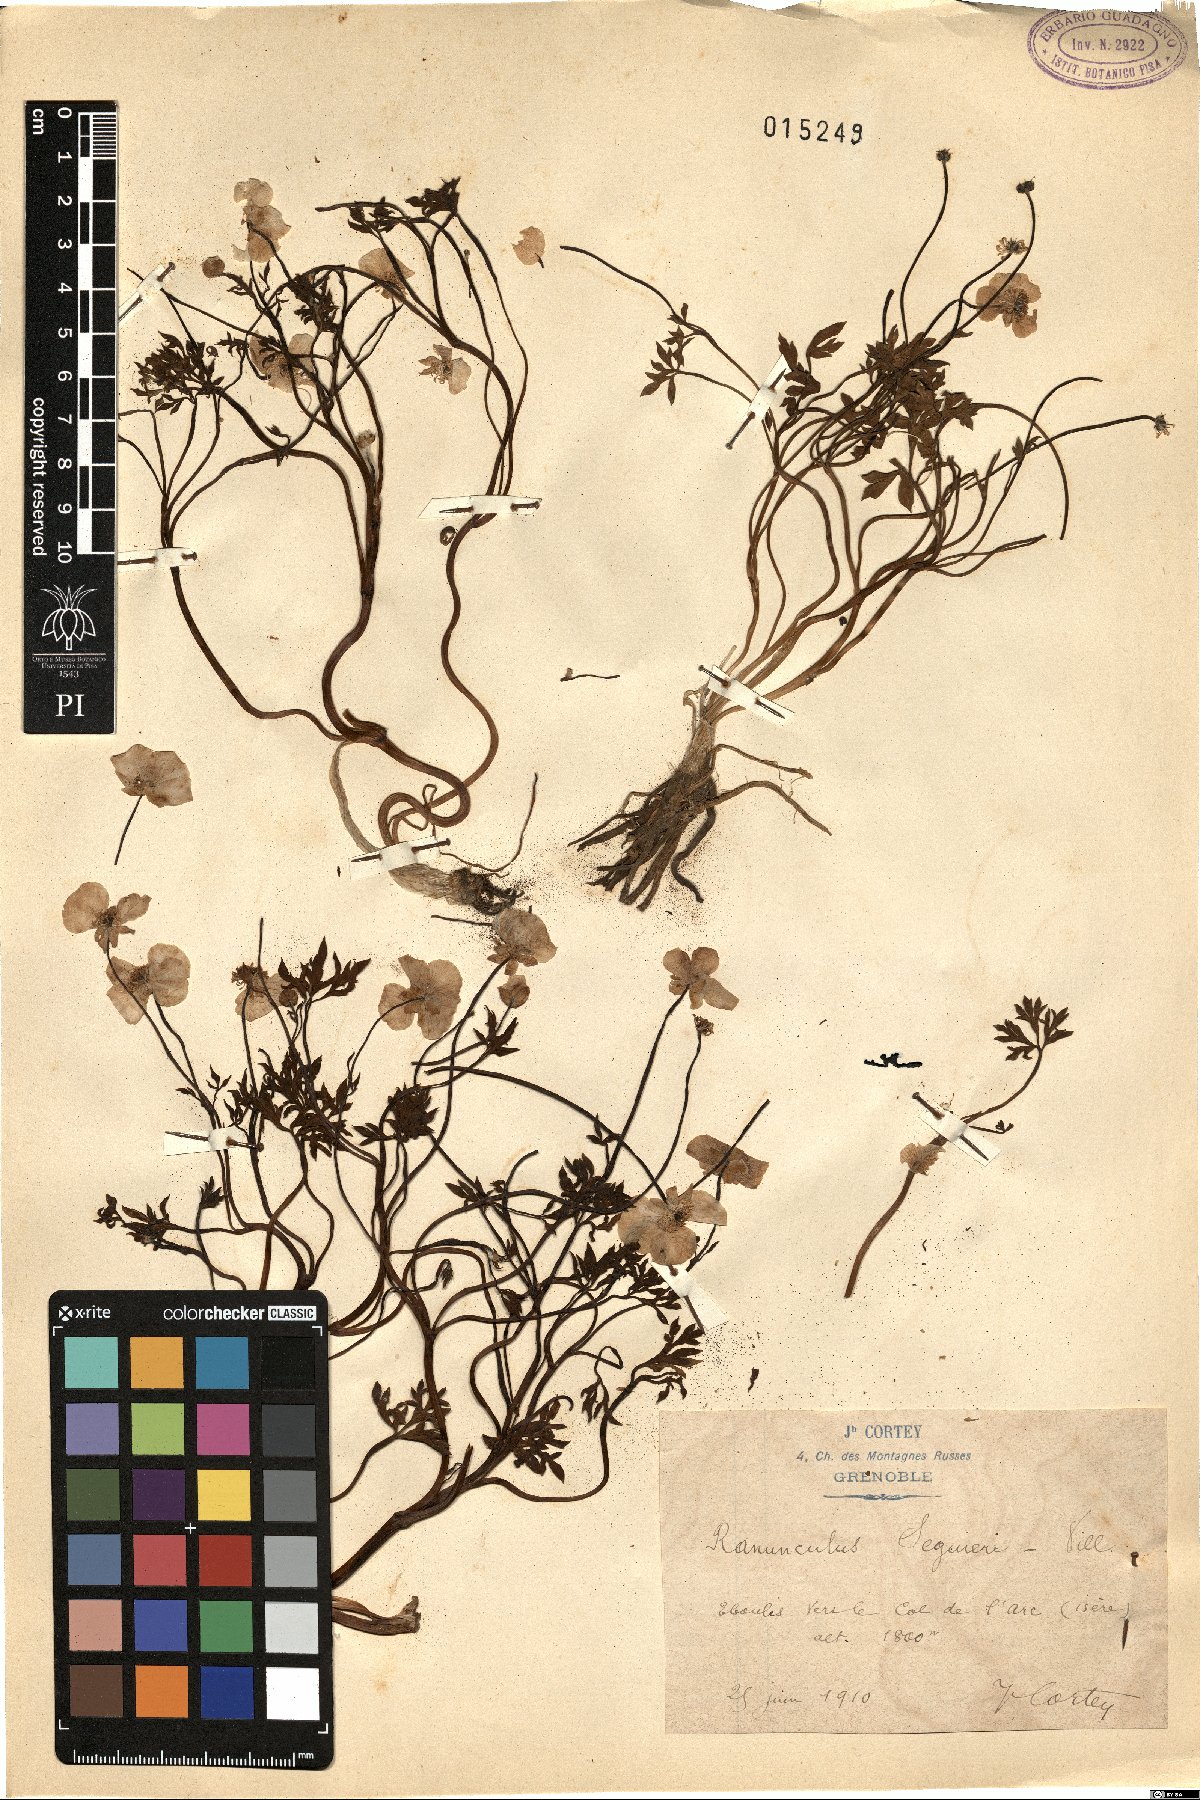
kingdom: Plantae
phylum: Tracheophyta
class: Magnoliopsida
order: Ranunculales
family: Ranunculaceae
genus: Ranunculus
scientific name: Ranunculus seguieri
